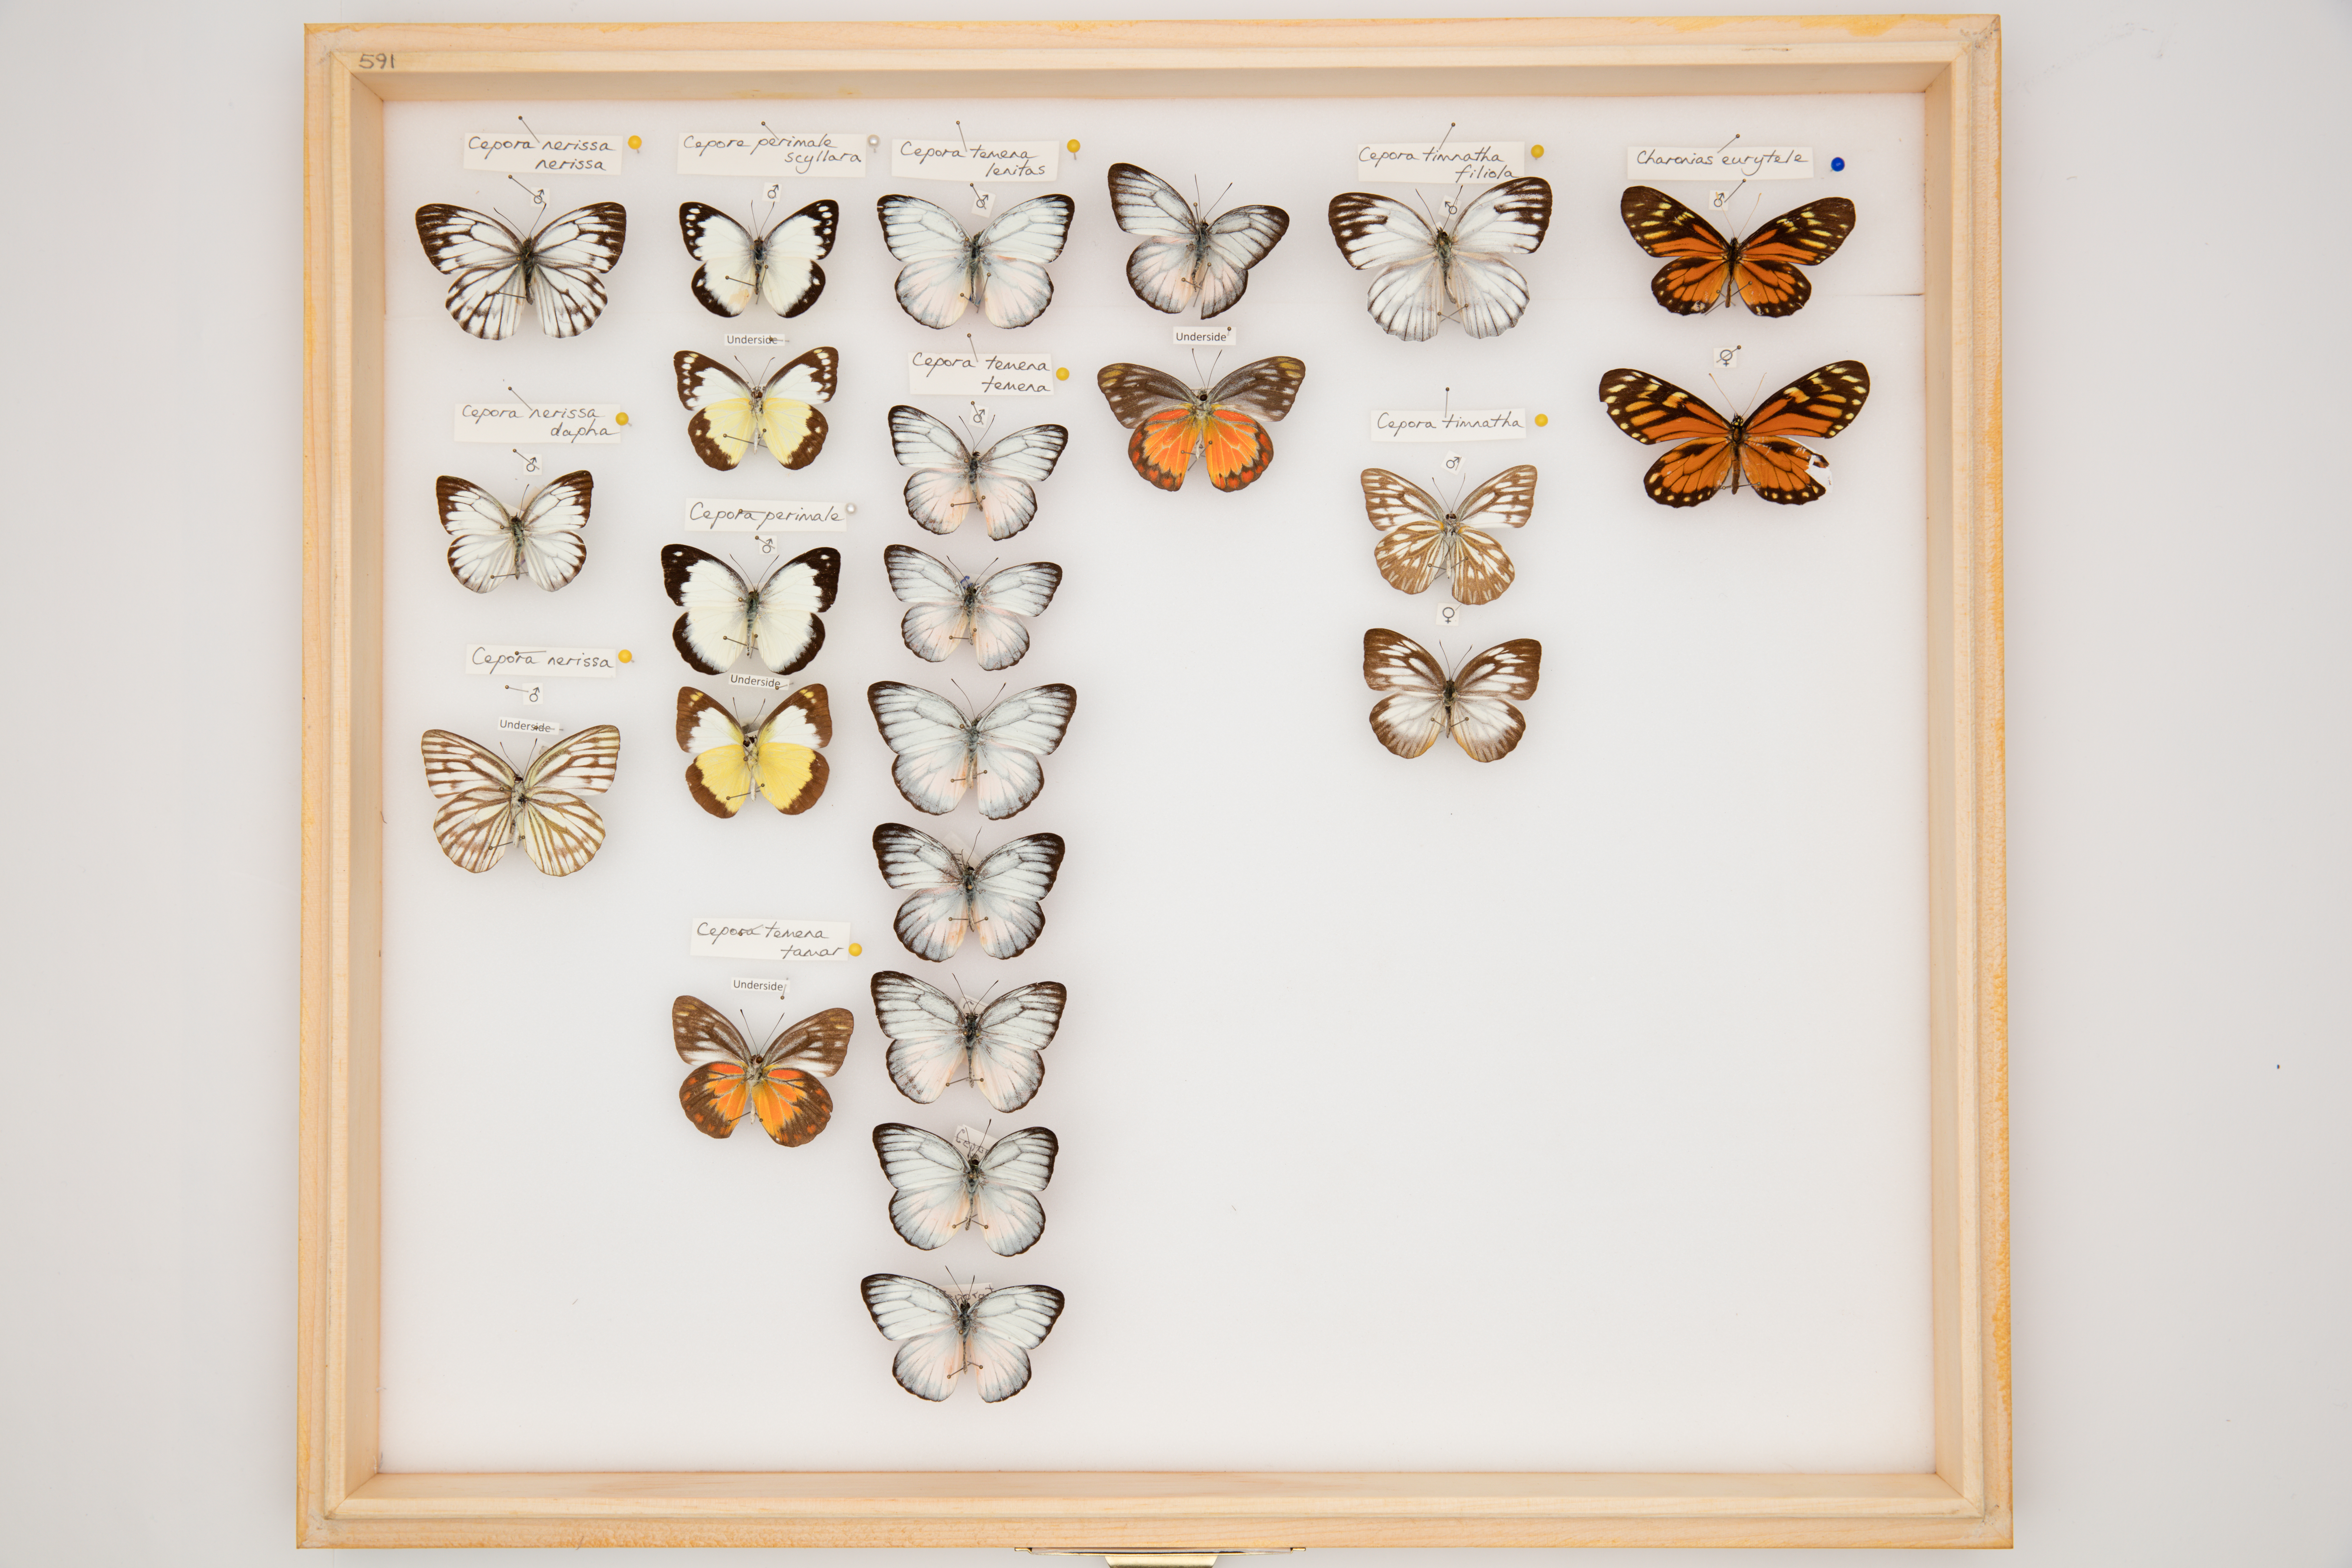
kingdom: Animalia
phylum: Arthropoda
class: Insecta
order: Lepidoptera
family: Pieridae
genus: Cepora
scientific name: Cepora nerissa
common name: Common gull
